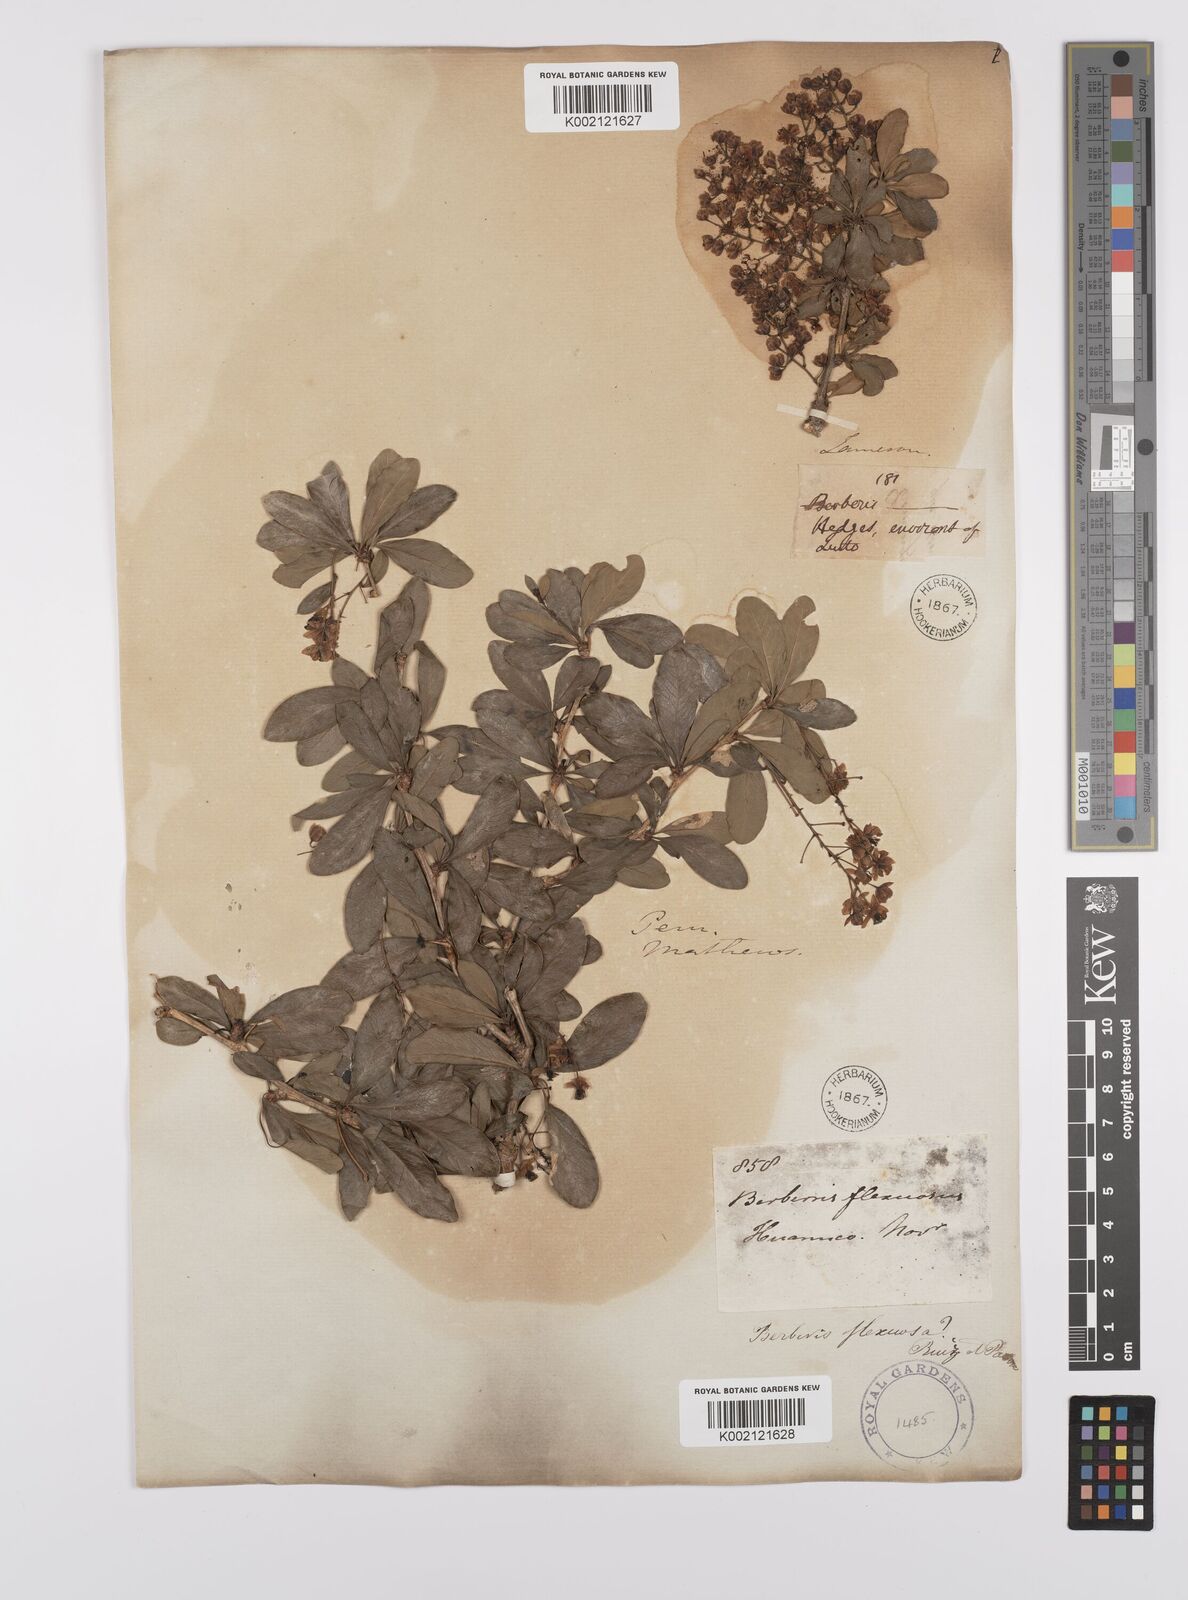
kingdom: Plantae
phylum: Tracheophyta
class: Magnoliopsida
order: Ranunculales
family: Berberidaceae
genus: Berberis
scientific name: Berberis flexuosa
